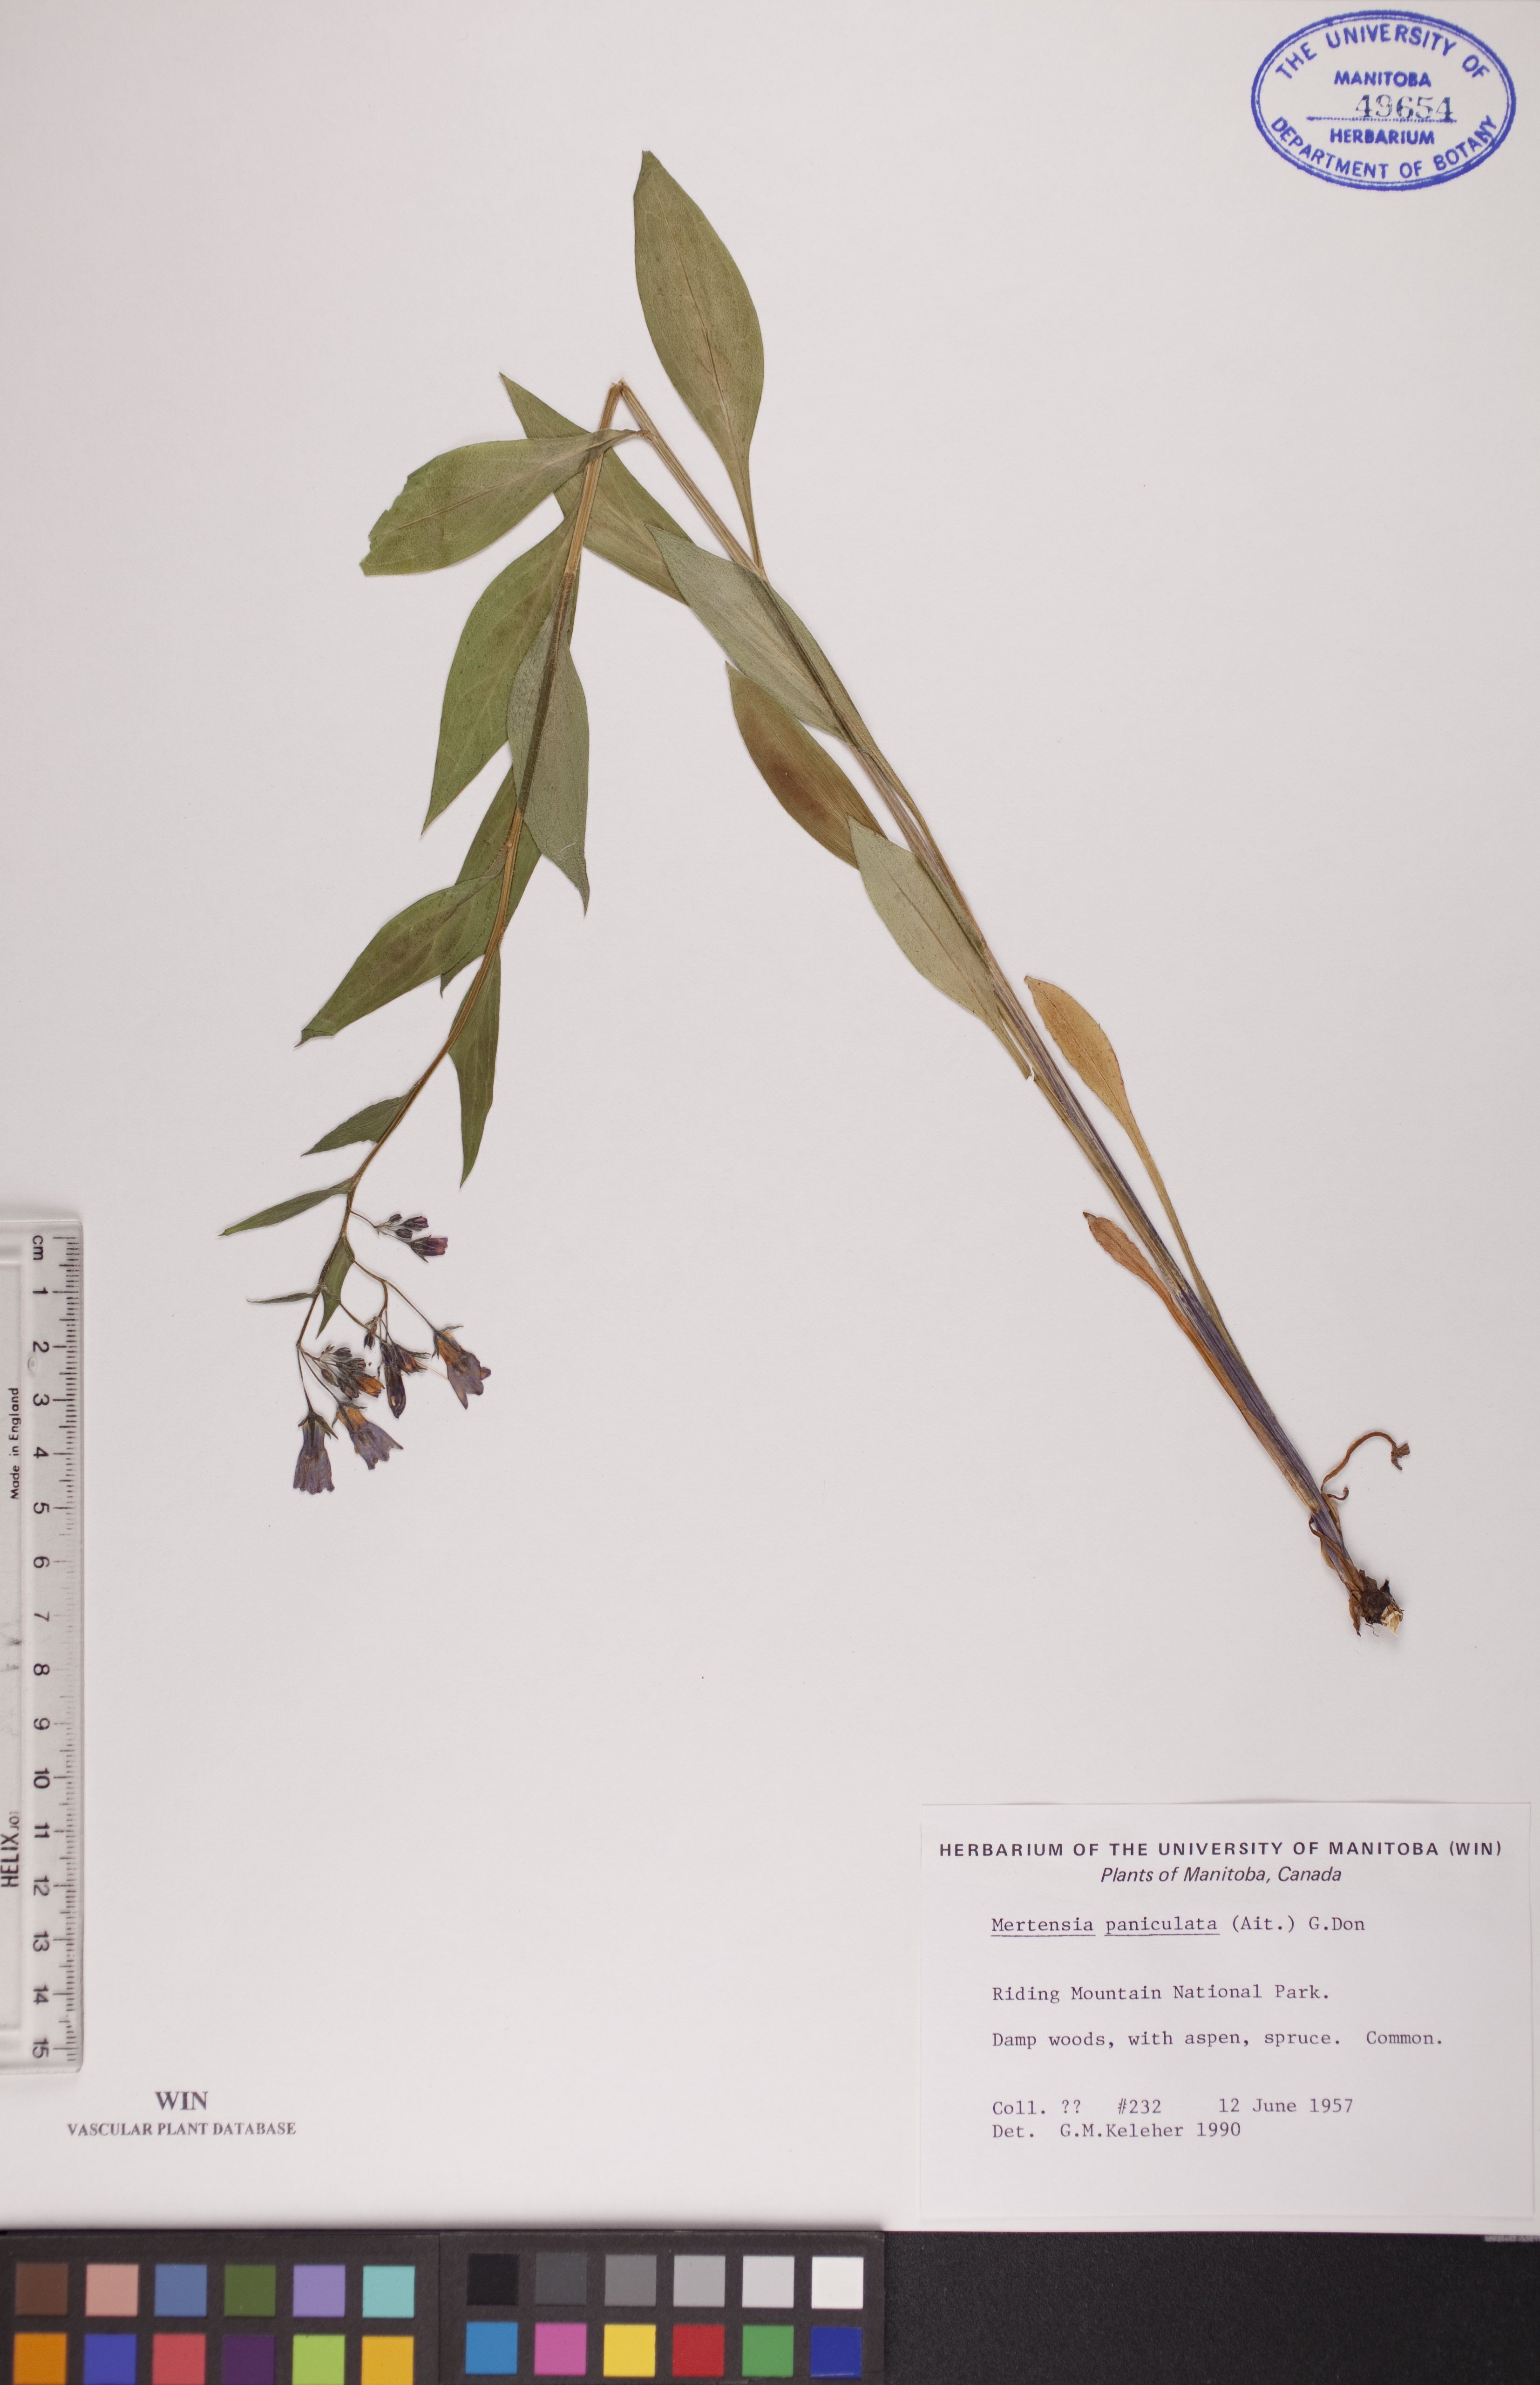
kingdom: Plantae
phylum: Tracheophyta
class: Magnoliopsida
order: Boraginales
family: Boraginaceae
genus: Mertensia
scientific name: Mertensia paniculata
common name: Panicled bluebells
